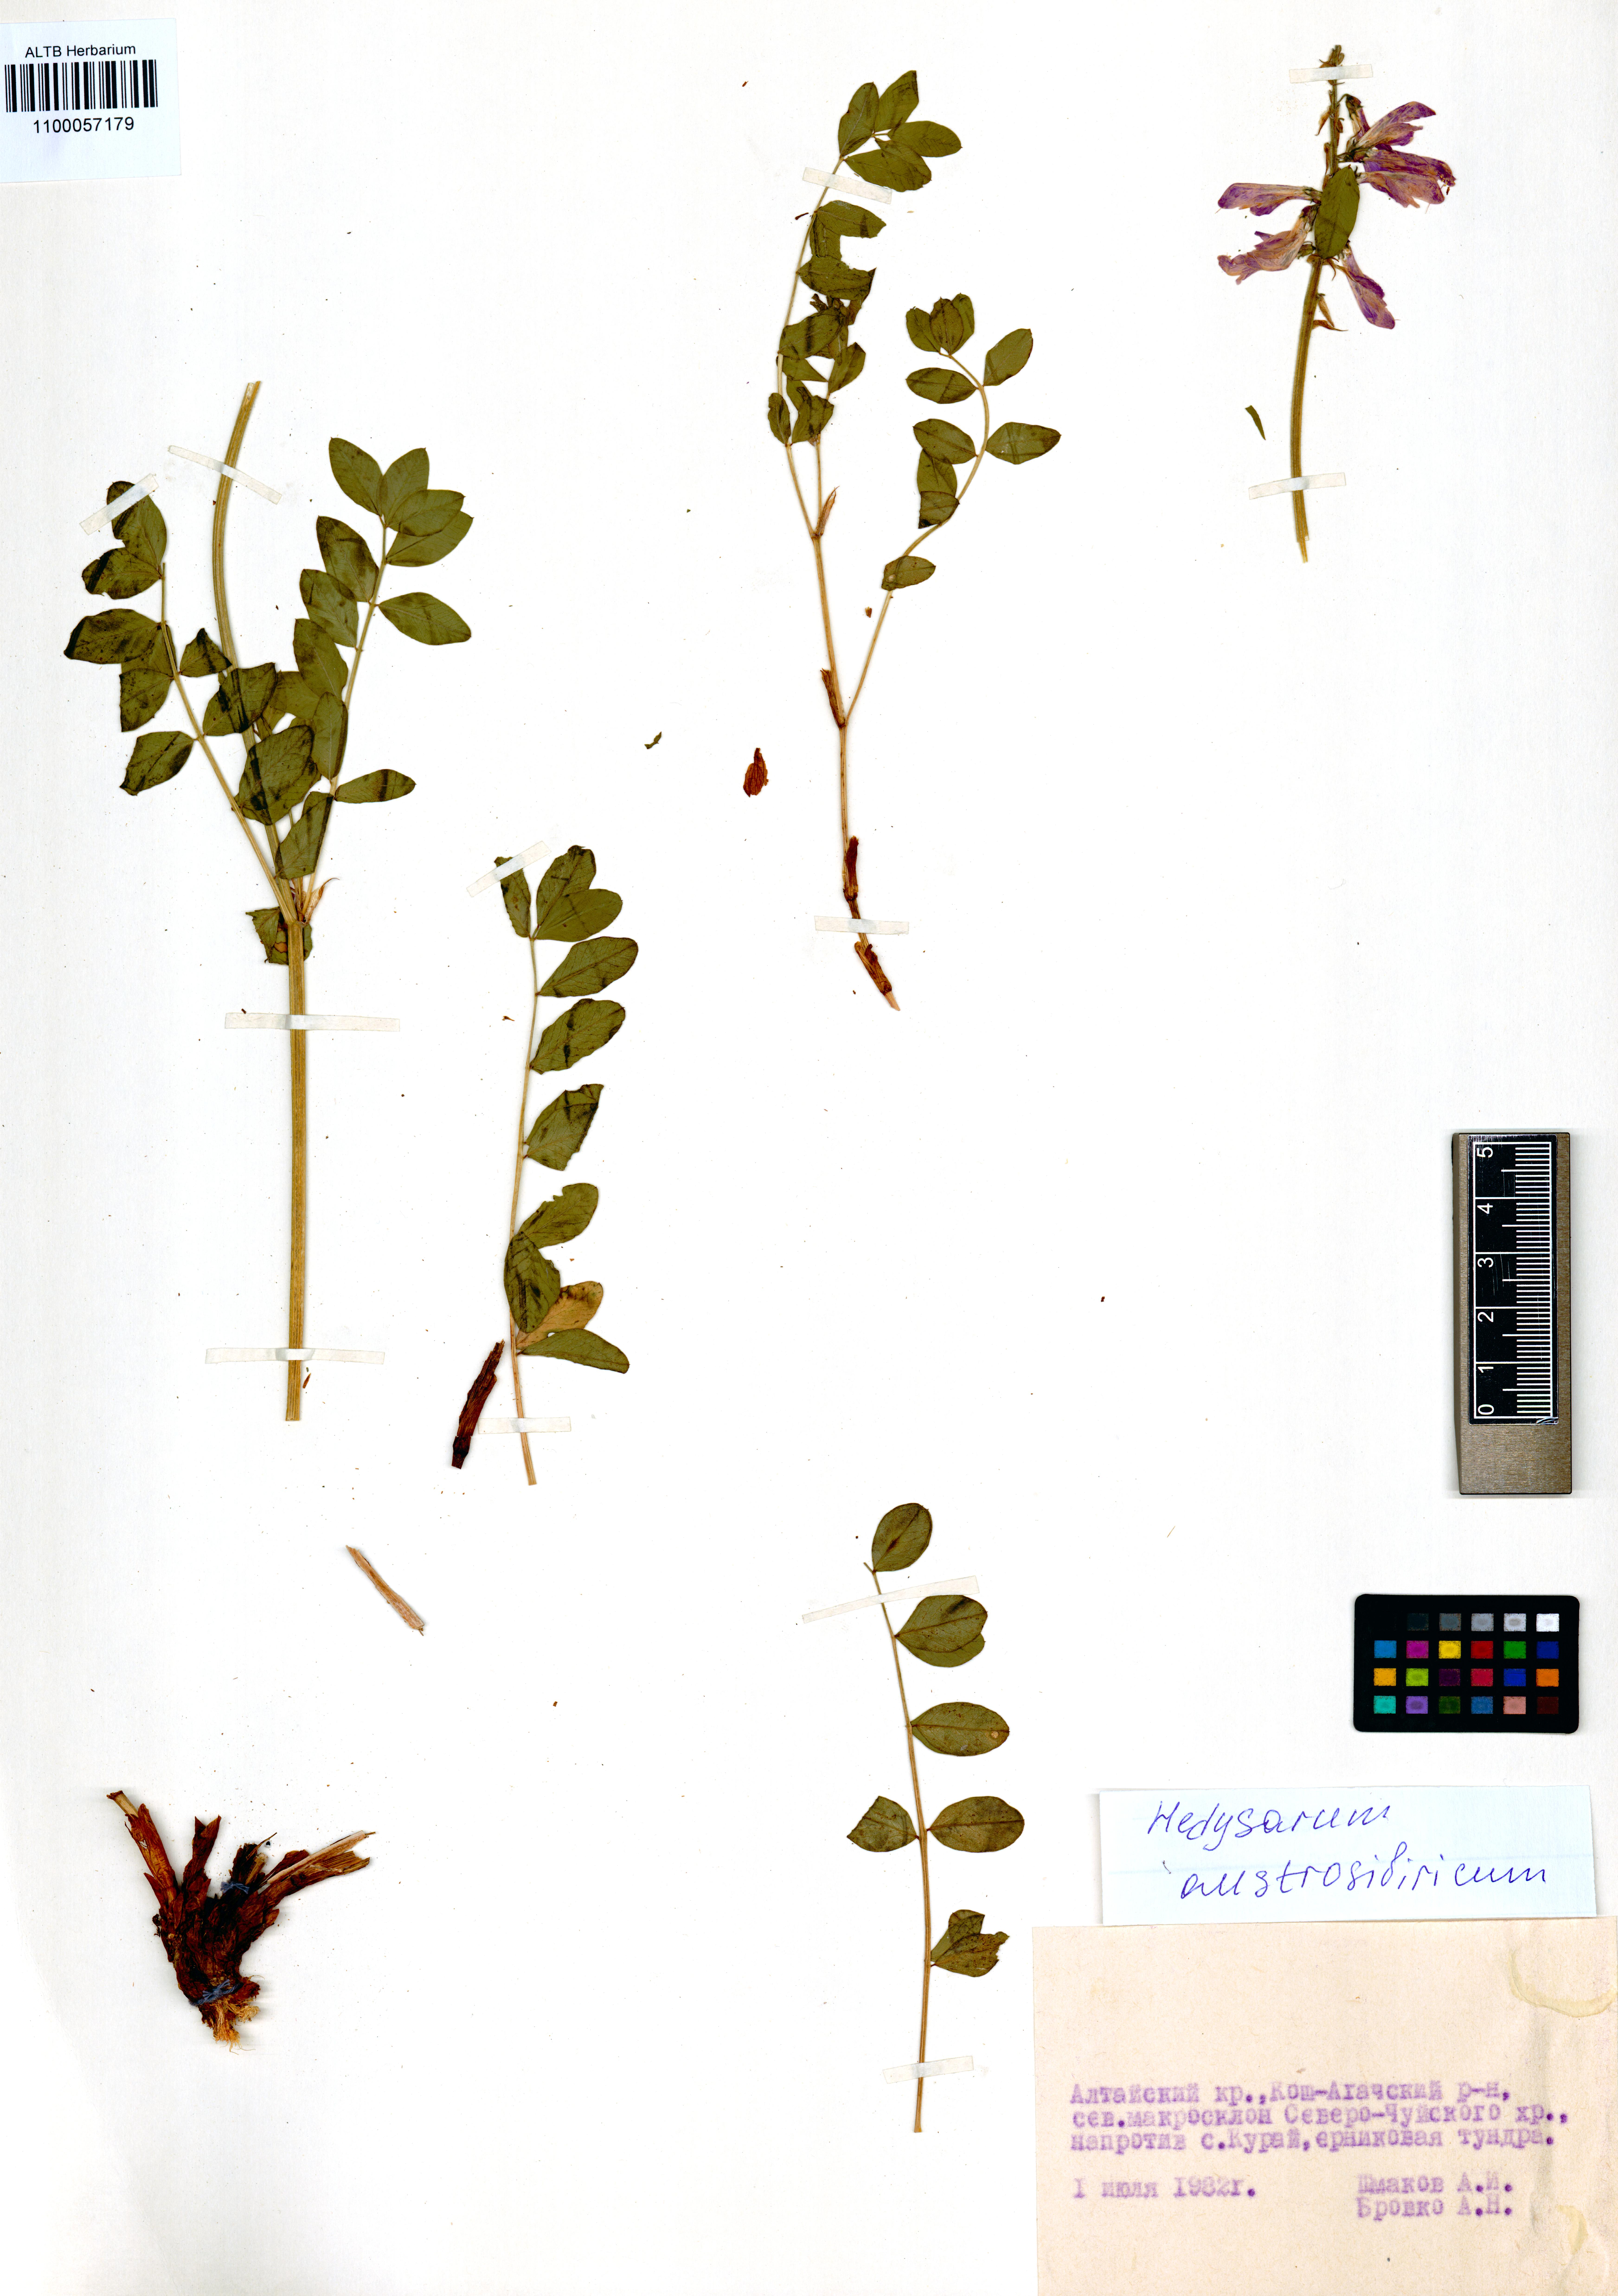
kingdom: Plantae
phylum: Tracheophyta
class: Magnoliopsida
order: Fabales
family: Fabaceae
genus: Hedysarum
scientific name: Hedysarum neglectum
